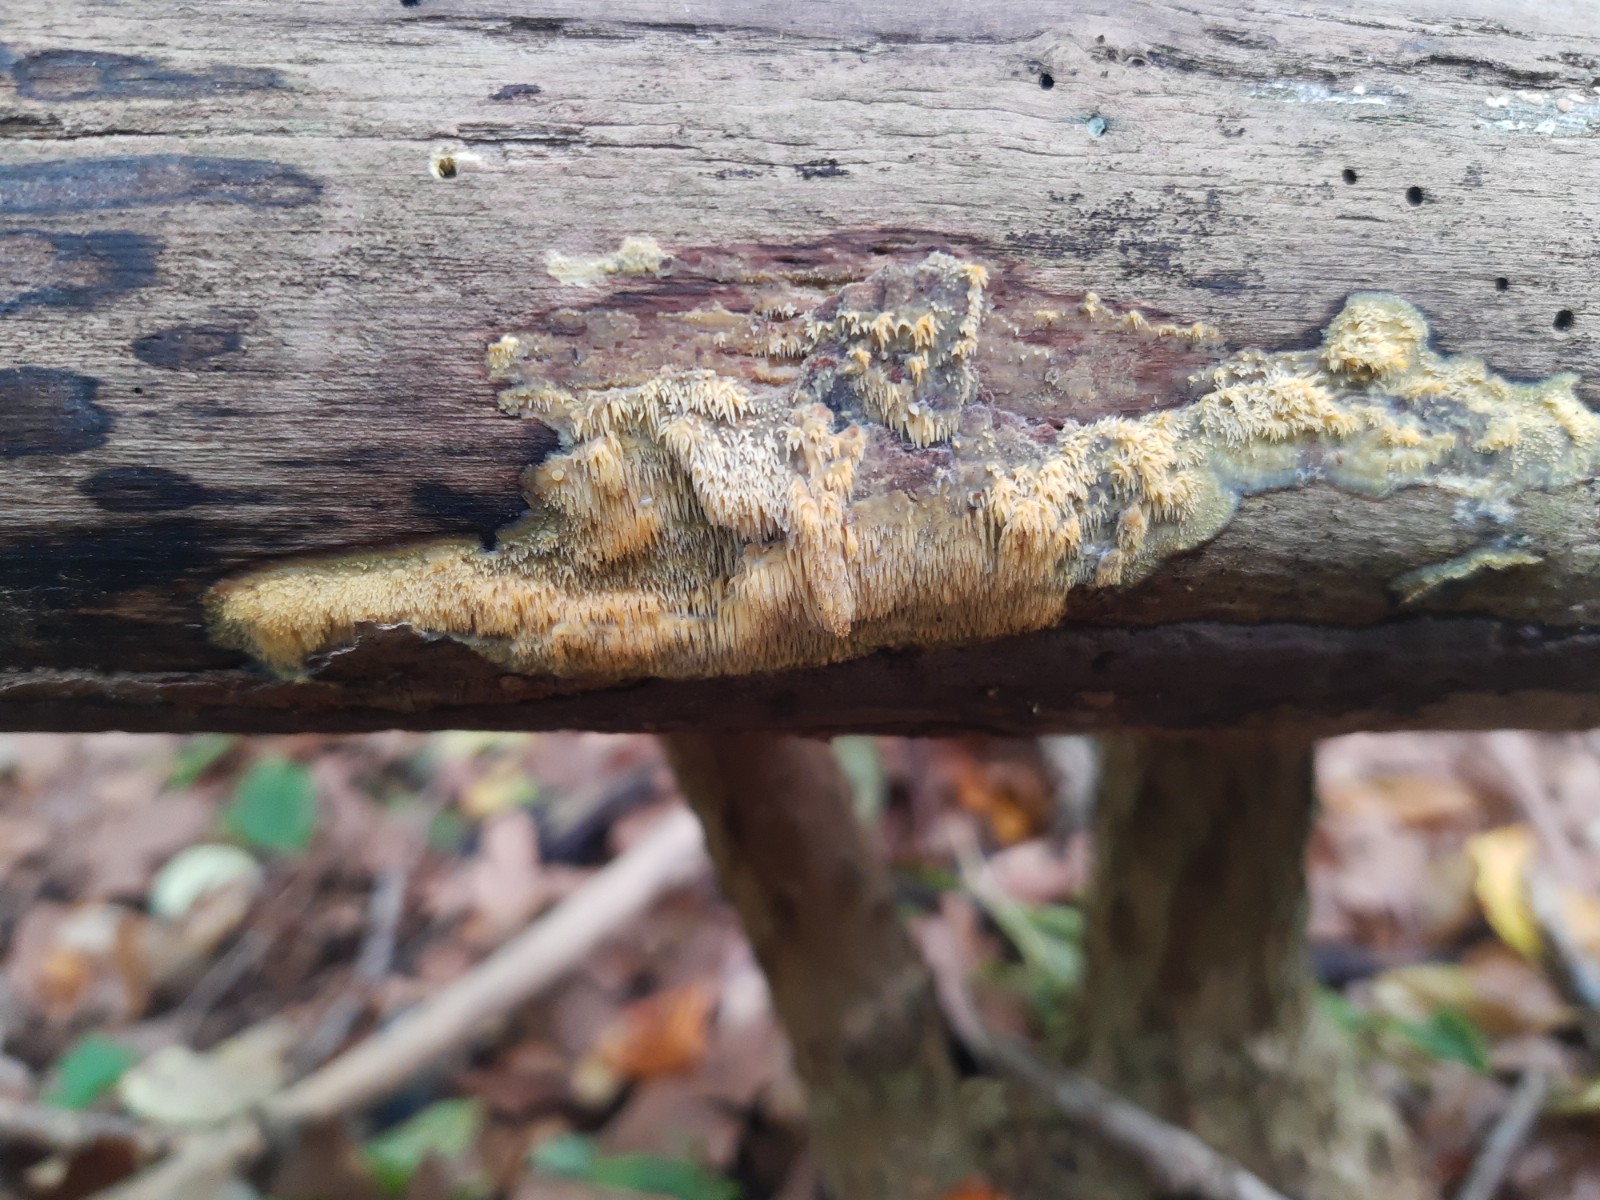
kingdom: Fungi
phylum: Basidiomycota
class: Agaricomycetes
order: Polyporales
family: Meruliaceae
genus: Mycoacia
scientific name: Mycoacia uda
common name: citrongul vokspig
